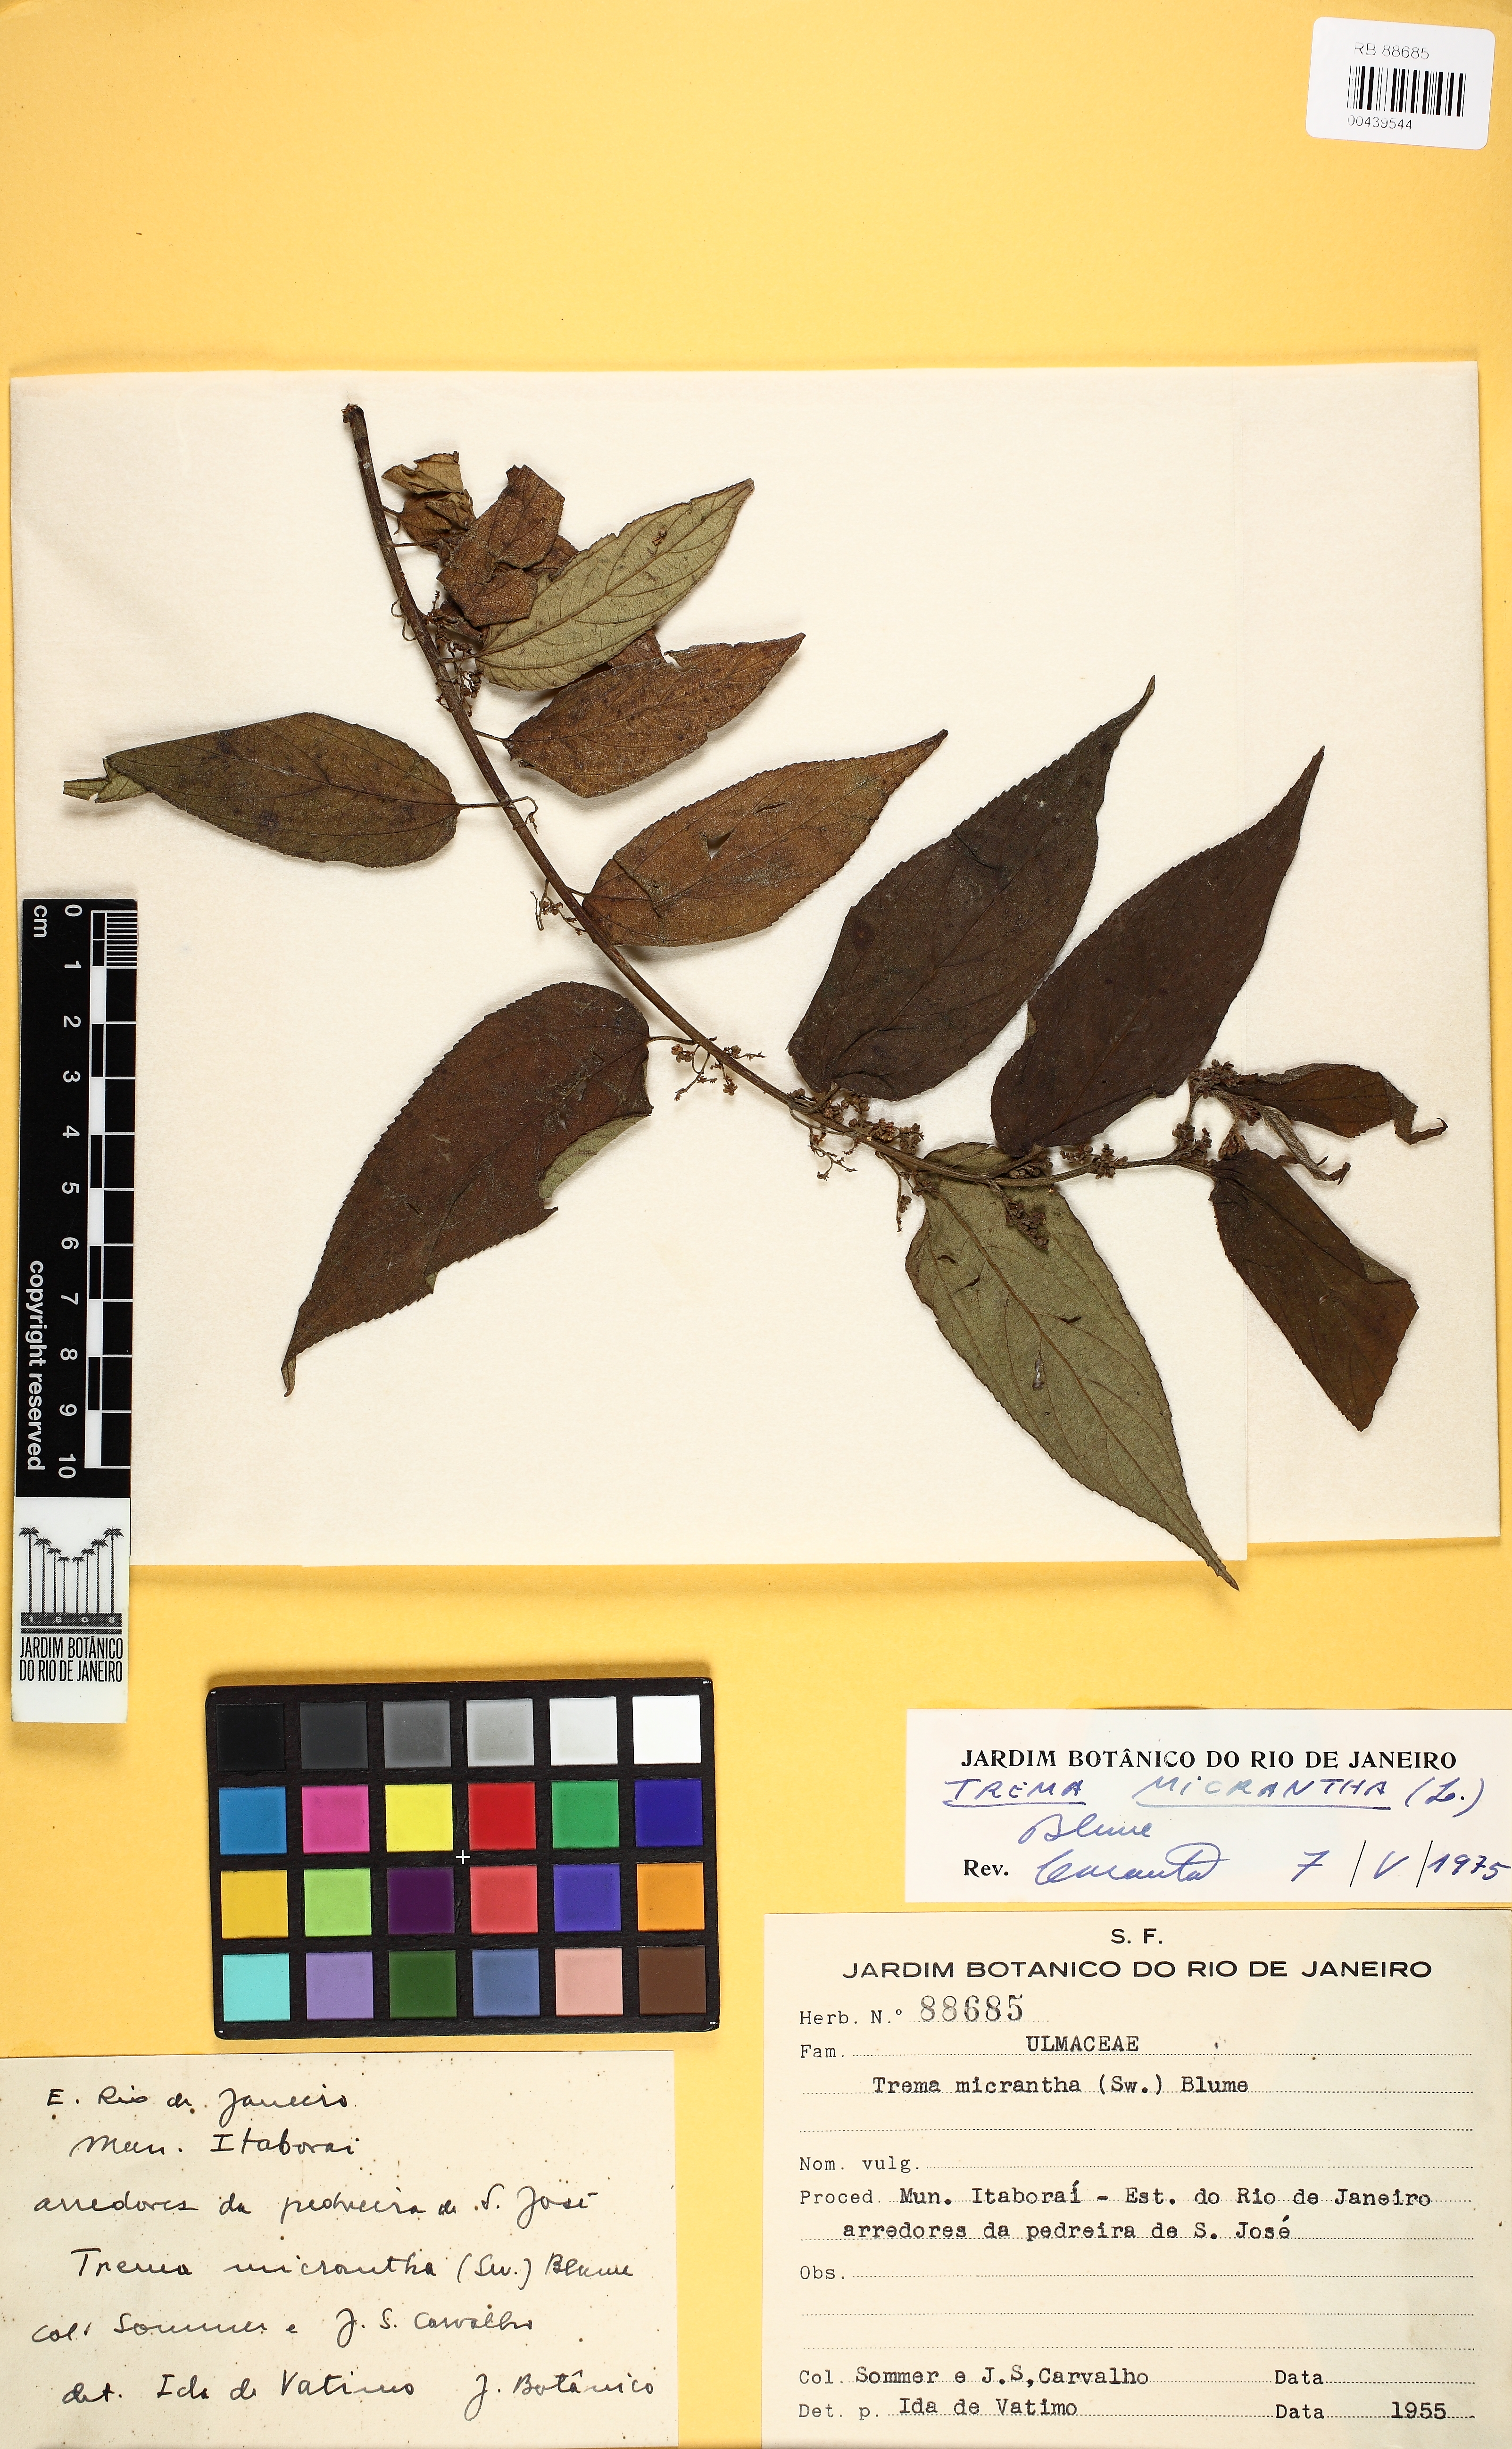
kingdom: Plantae
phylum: Tracheophyta
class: Magnoliopsida
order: Rosales
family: Cannabaceae
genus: Trema
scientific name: Trema micranthum
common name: Jamaican nettletree
